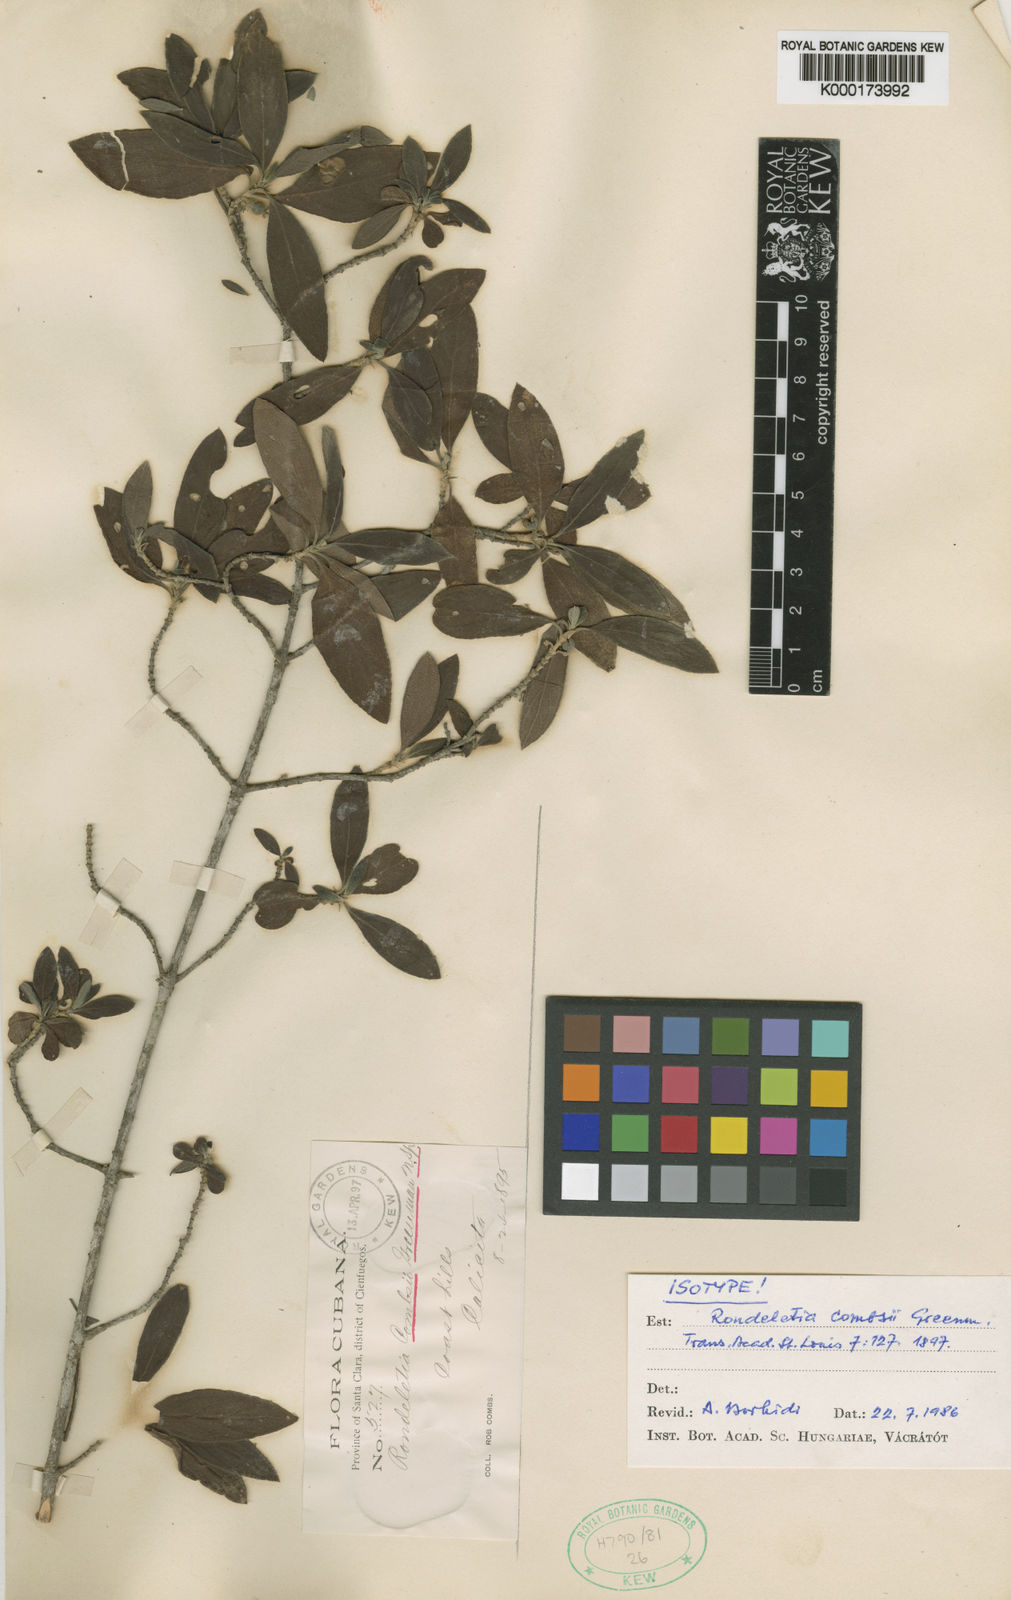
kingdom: Plantae
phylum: Tracheophyta
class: Magnoliopsida
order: Gentianales
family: Rubiaceae
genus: Rondeletia
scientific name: Rondeletia combsii
